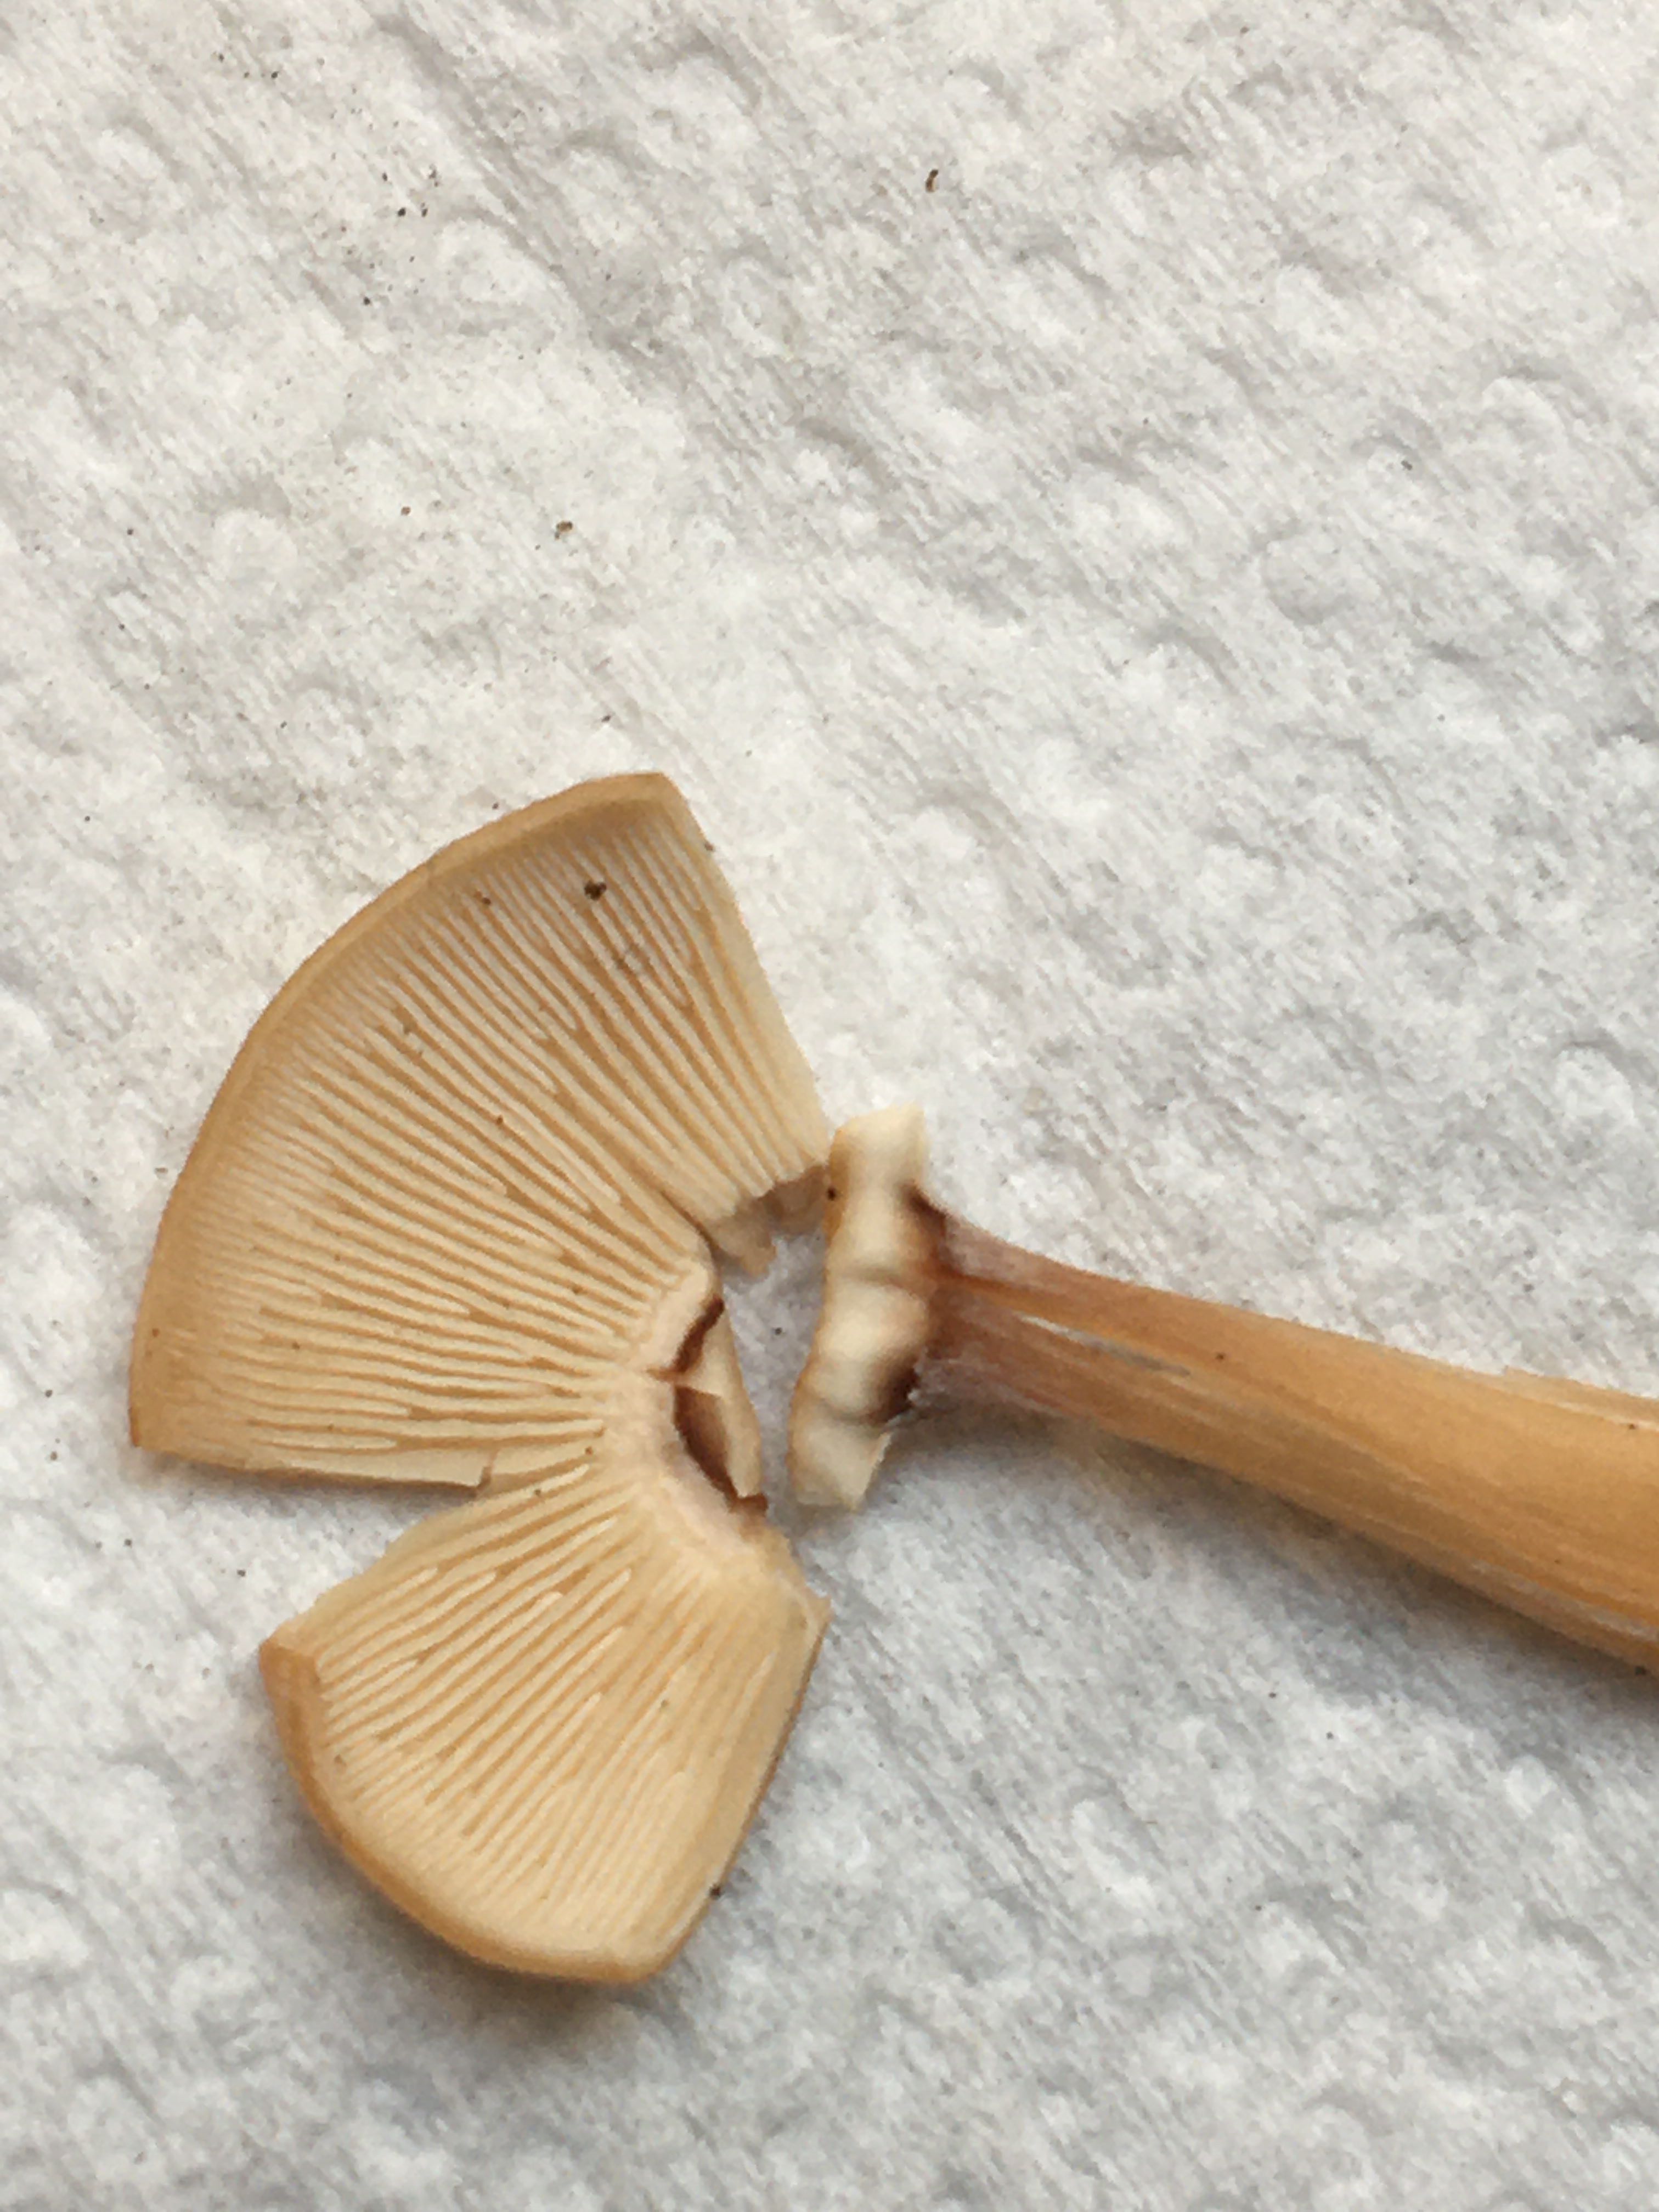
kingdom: Fungi
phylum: Basidiomycota
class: Agaricomycetes
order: Agaricales
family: Omphalotaceae
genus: Collybiopsis
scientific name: Collybiopsis confluens
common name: knippe-fladhat
